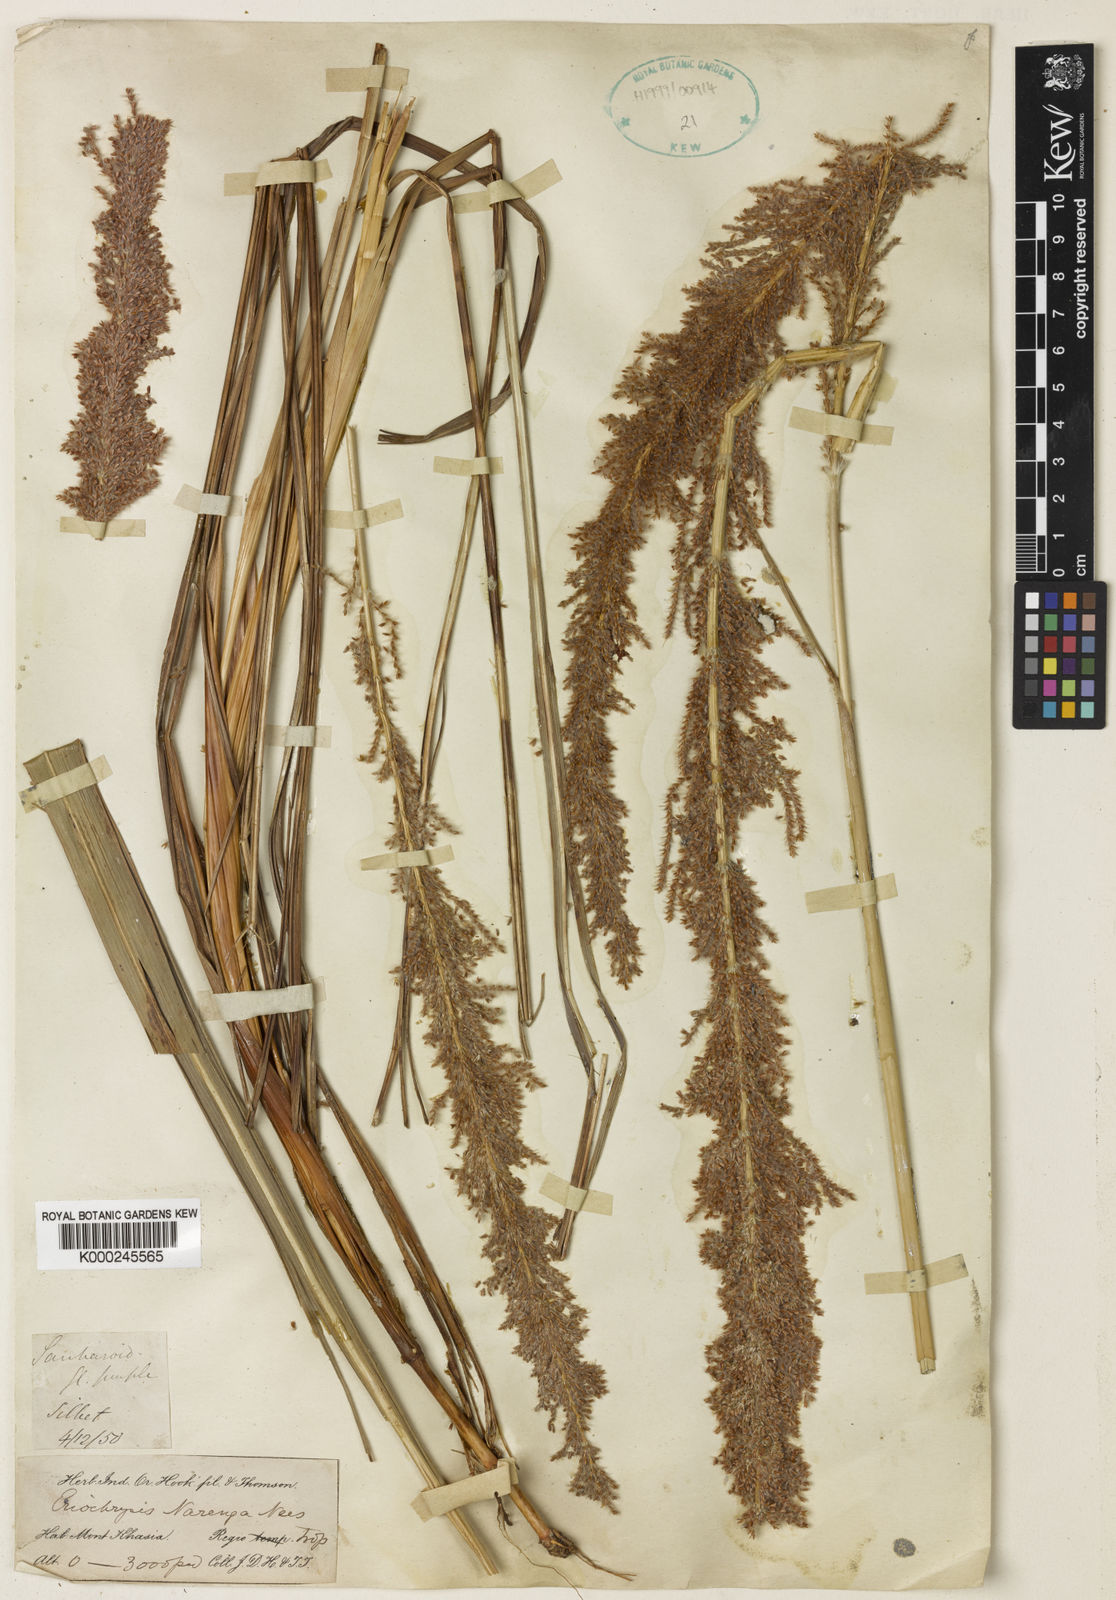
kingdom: Plantae
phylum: Tracheophyta
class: Liliopsida
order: Poales
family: Poaceae
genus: Narenga
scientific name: Narenga porphyrocoma
